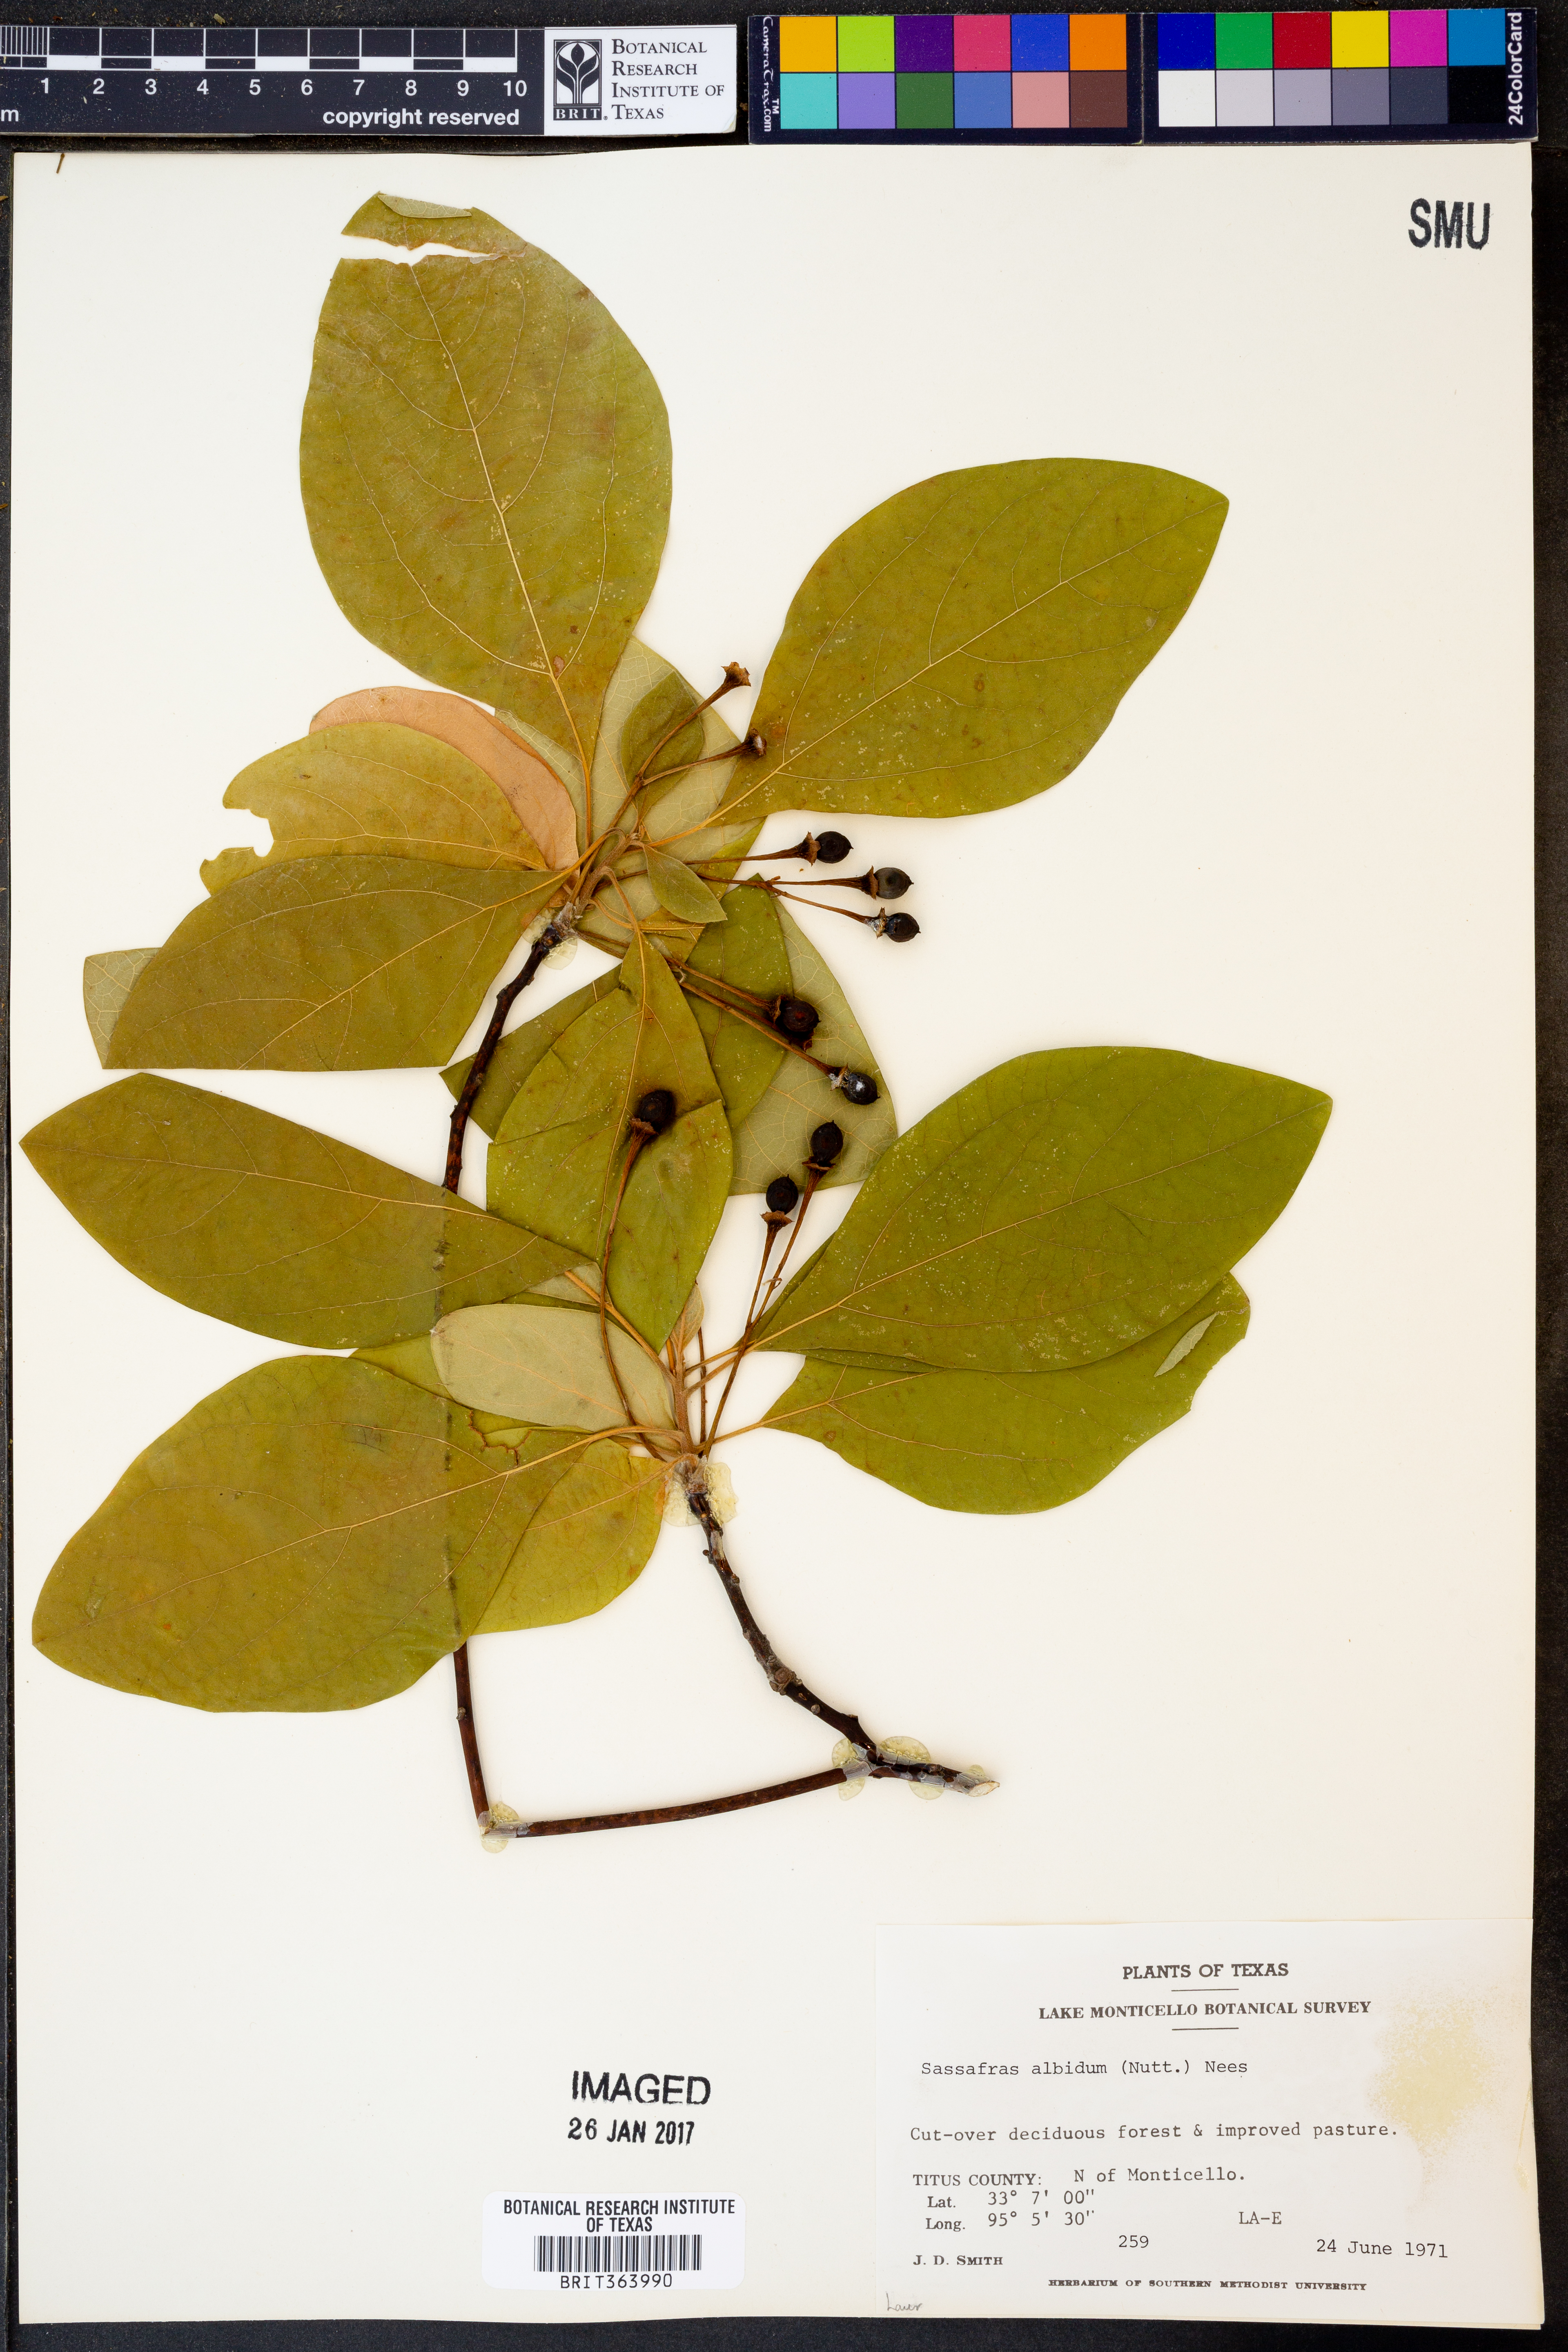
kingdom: Plantae
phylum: Tracheophyta
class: Magnoliopsida
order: Laurales
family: Lauraceae
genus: Sassafras
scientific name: Sassafras albidum
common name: Sassafras
